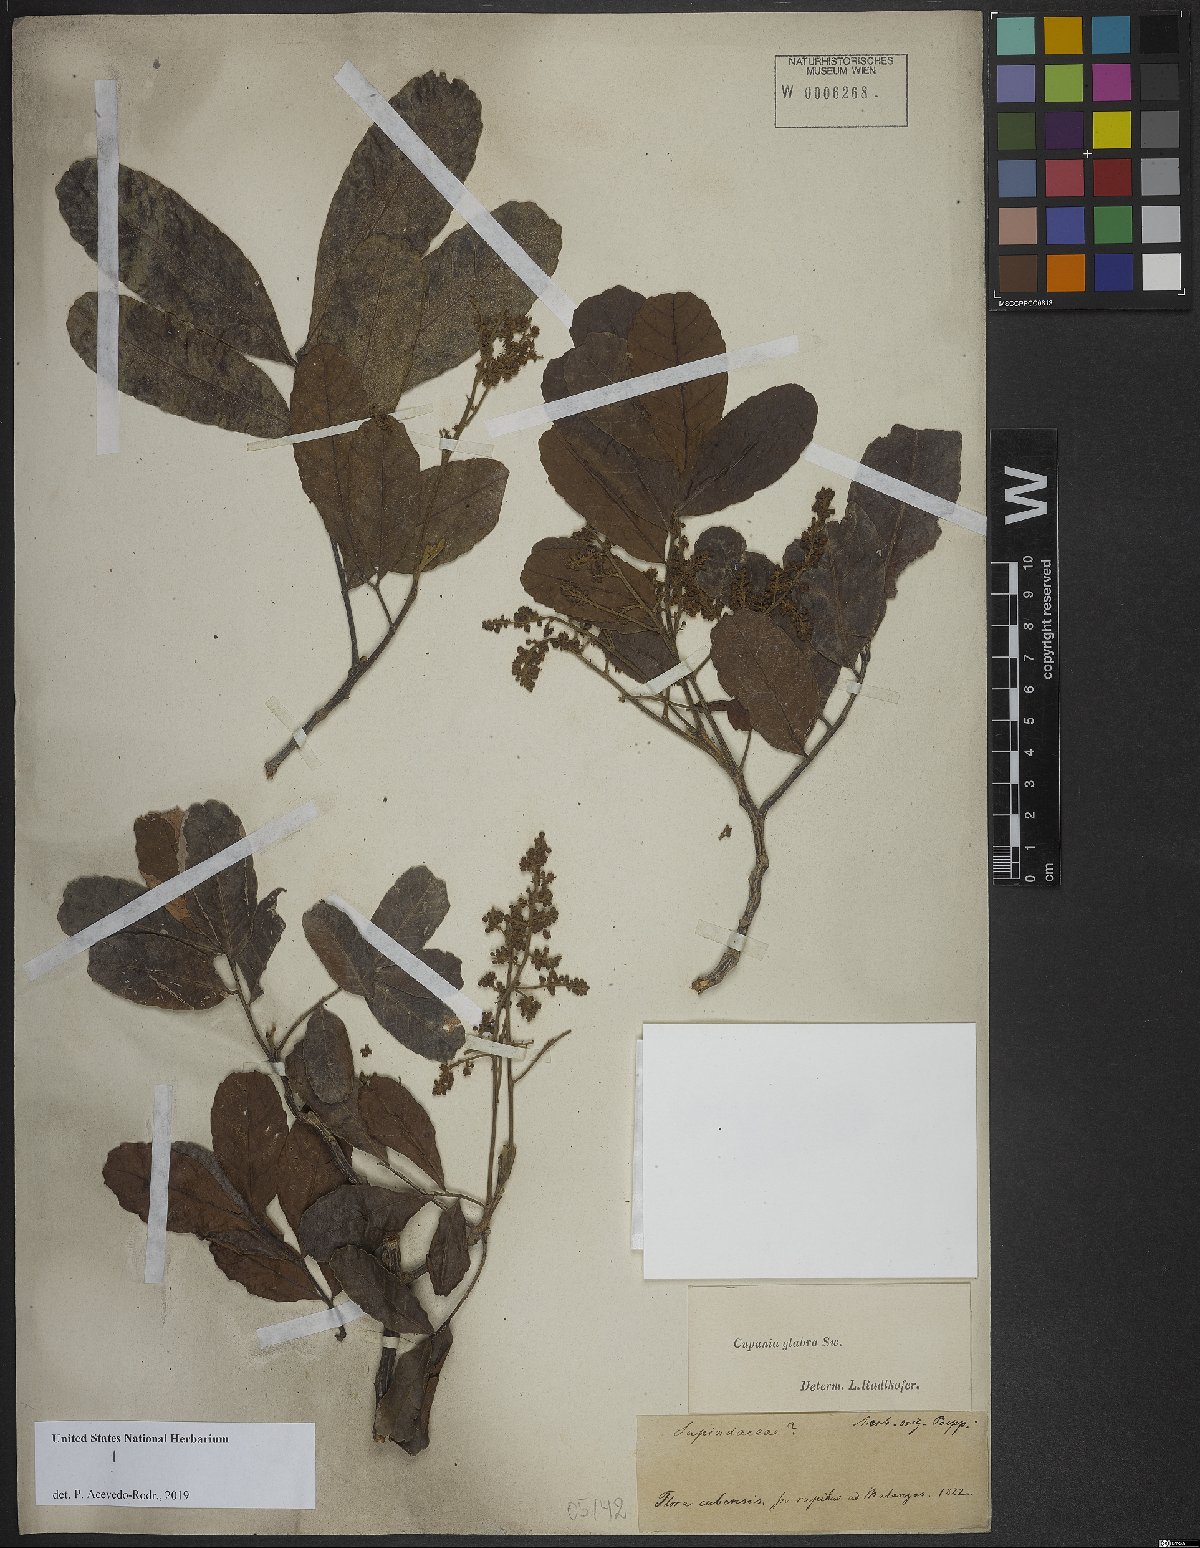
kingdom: Plantae
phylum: Tracheophyta
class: Magnoliopsida
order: Sapindales
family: Sapindaceae
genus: Cupania
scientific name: Cupania glabra
